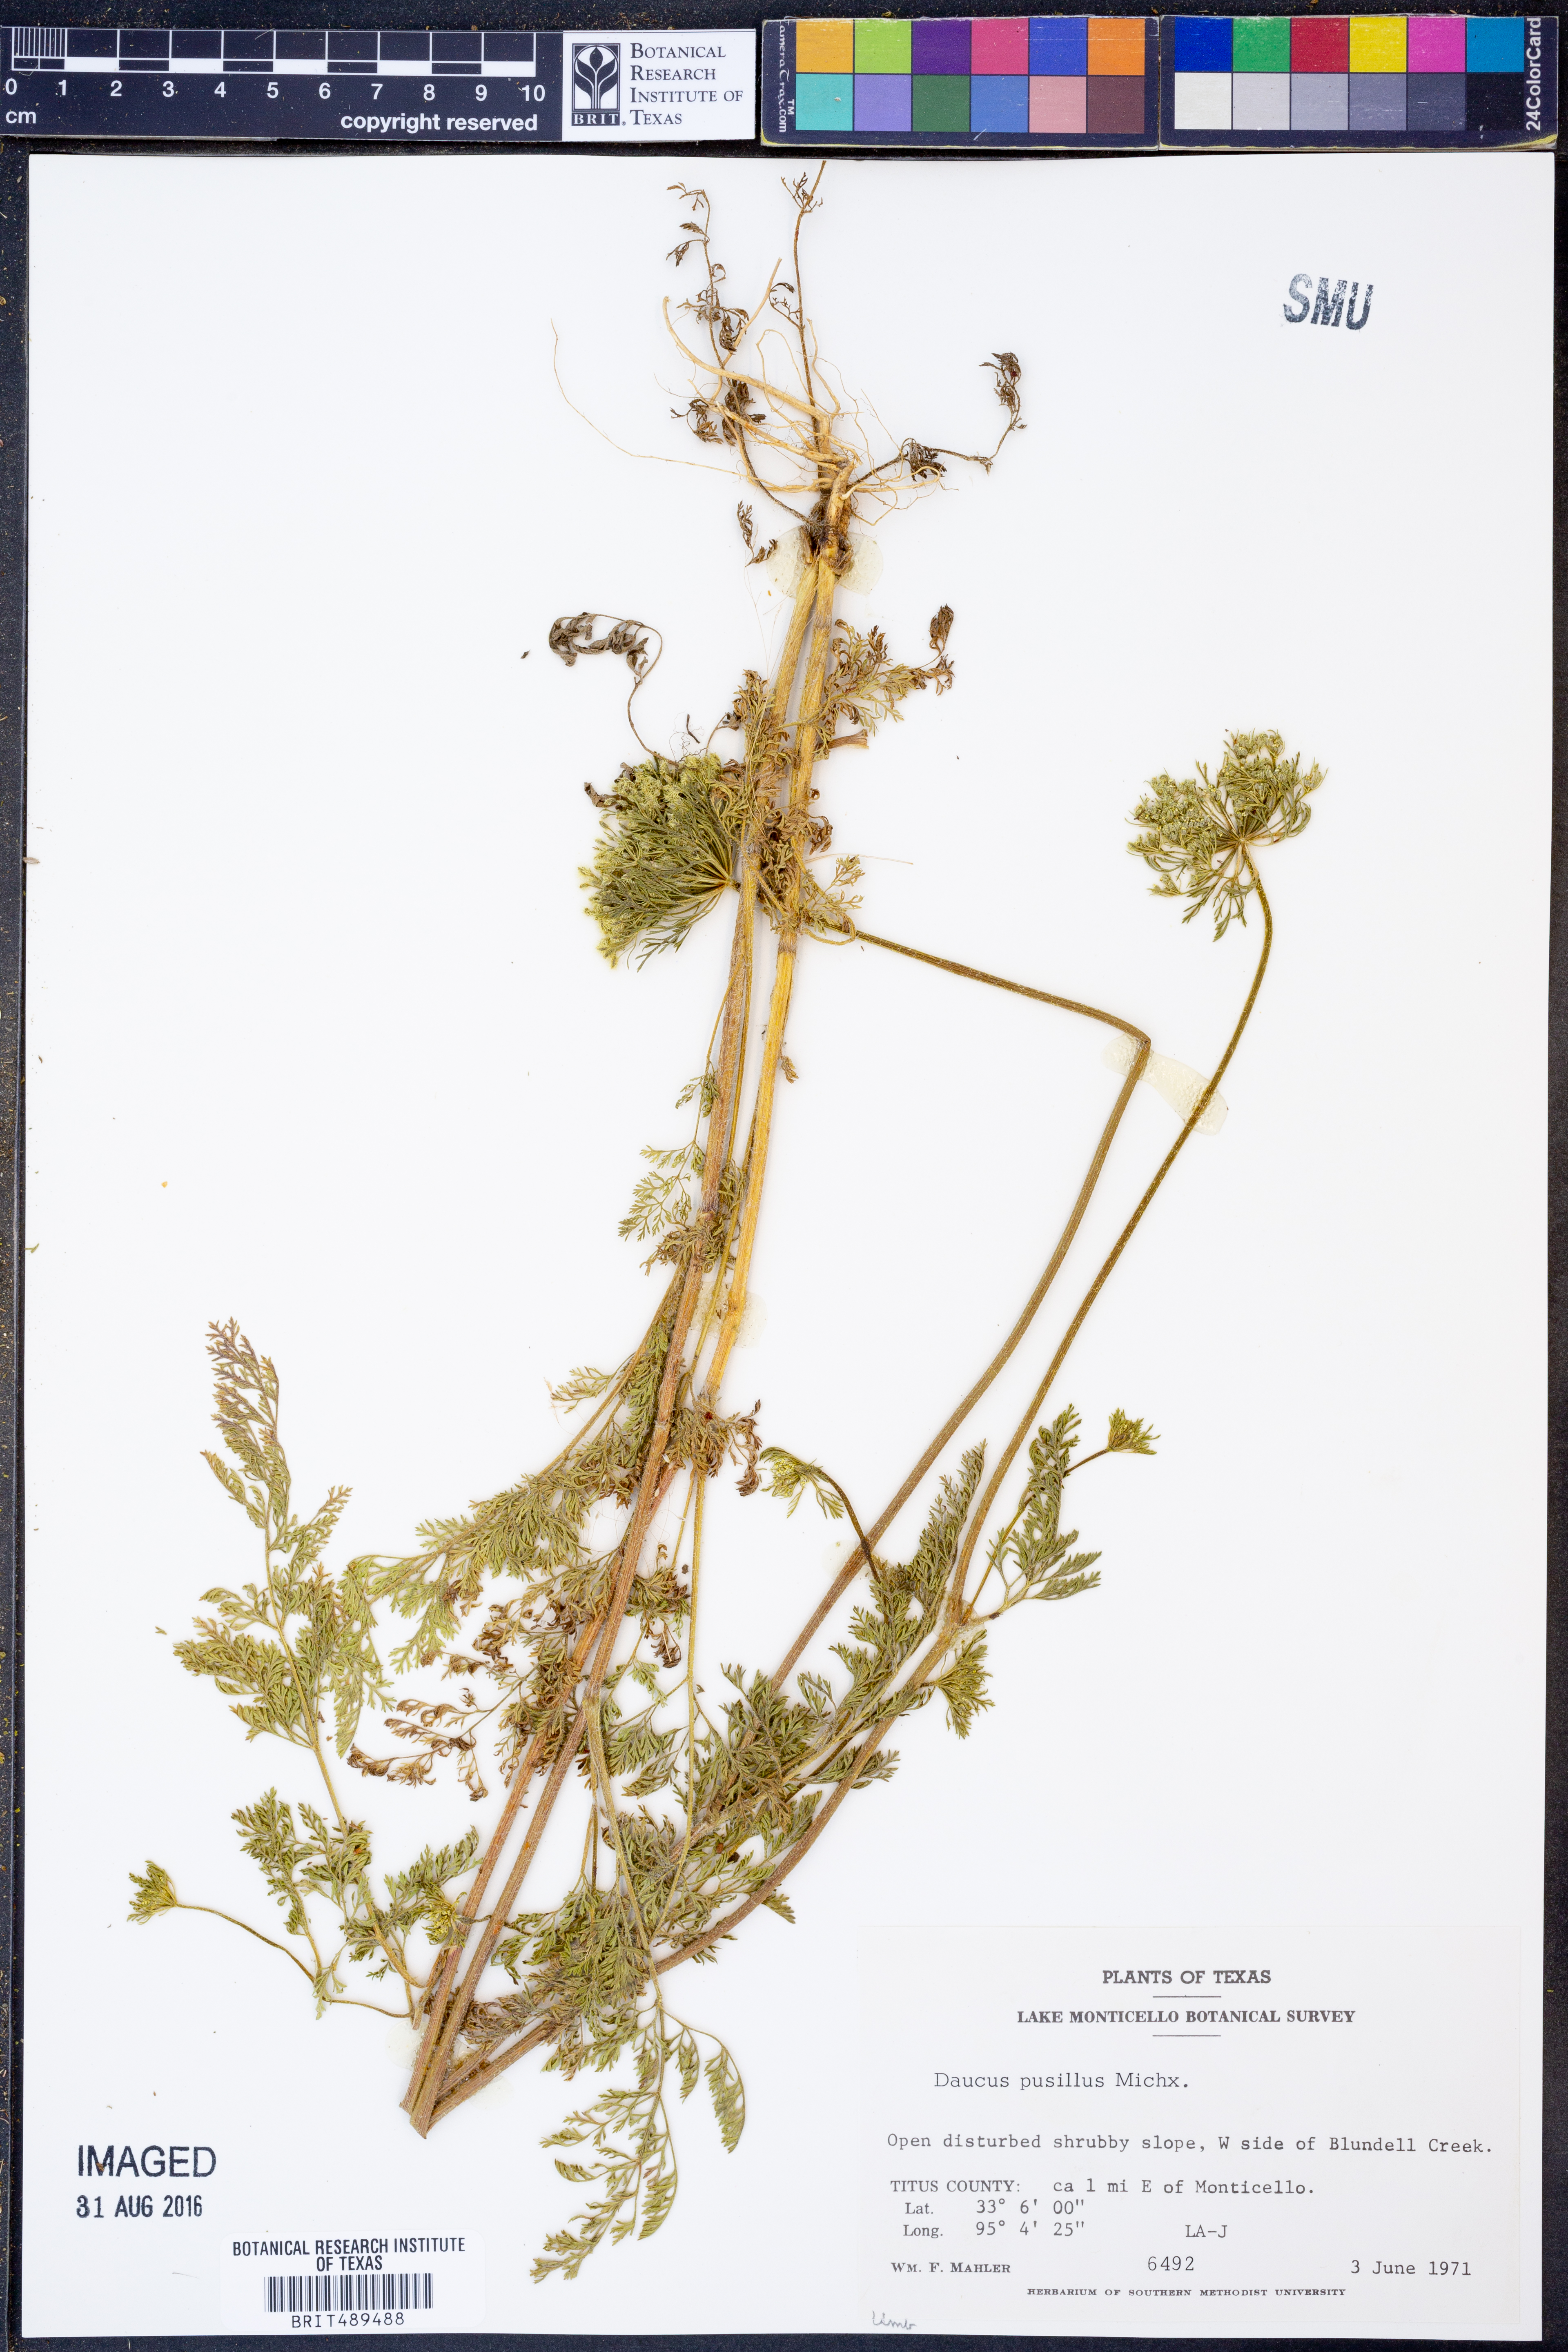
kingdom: Plantae
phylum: Tracheophyta
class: Magnoliopsida
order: Apiales
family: Apiaceae
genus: Daucus
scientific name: Daucus pusillus
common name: Southwest wild carrot
